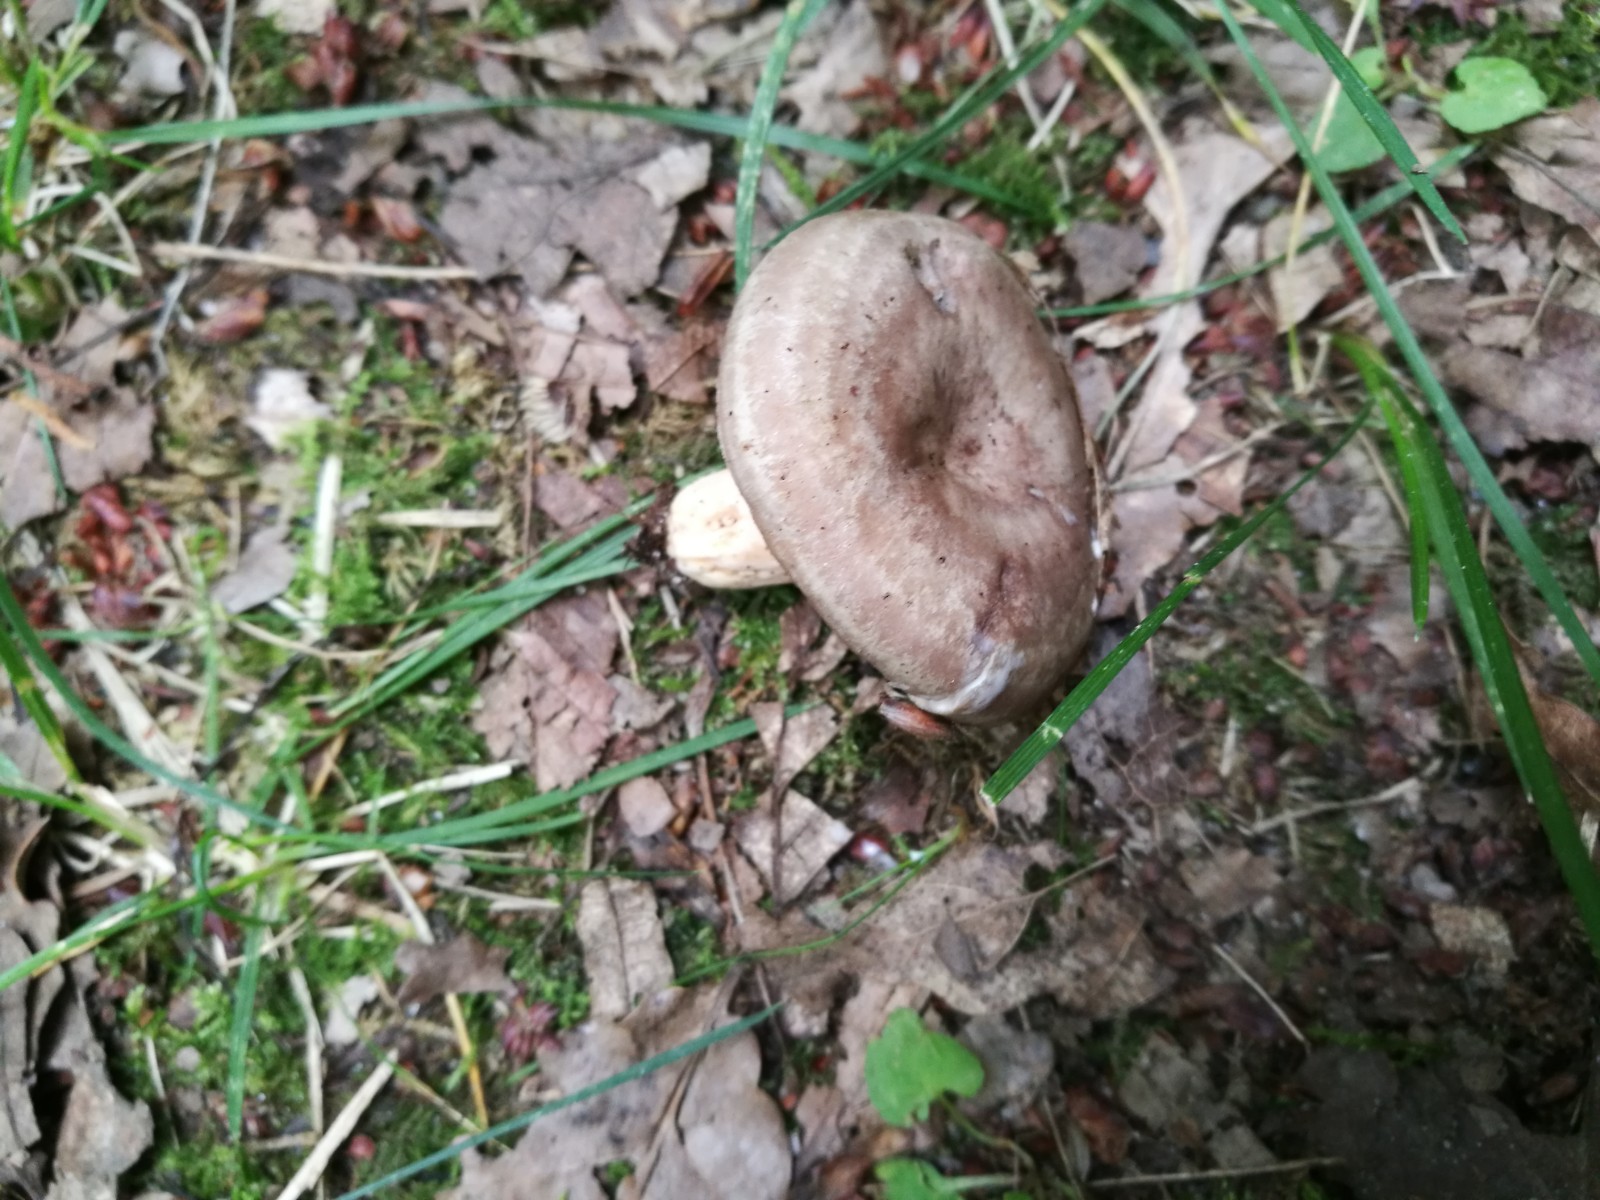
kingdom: Fungi
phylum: Basidiomycota
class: Agaricomycetes
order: Russulales
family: Russulaceae
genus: Lactarius
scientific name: Lactarius circellatus
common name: avnbøg-mælkehat
